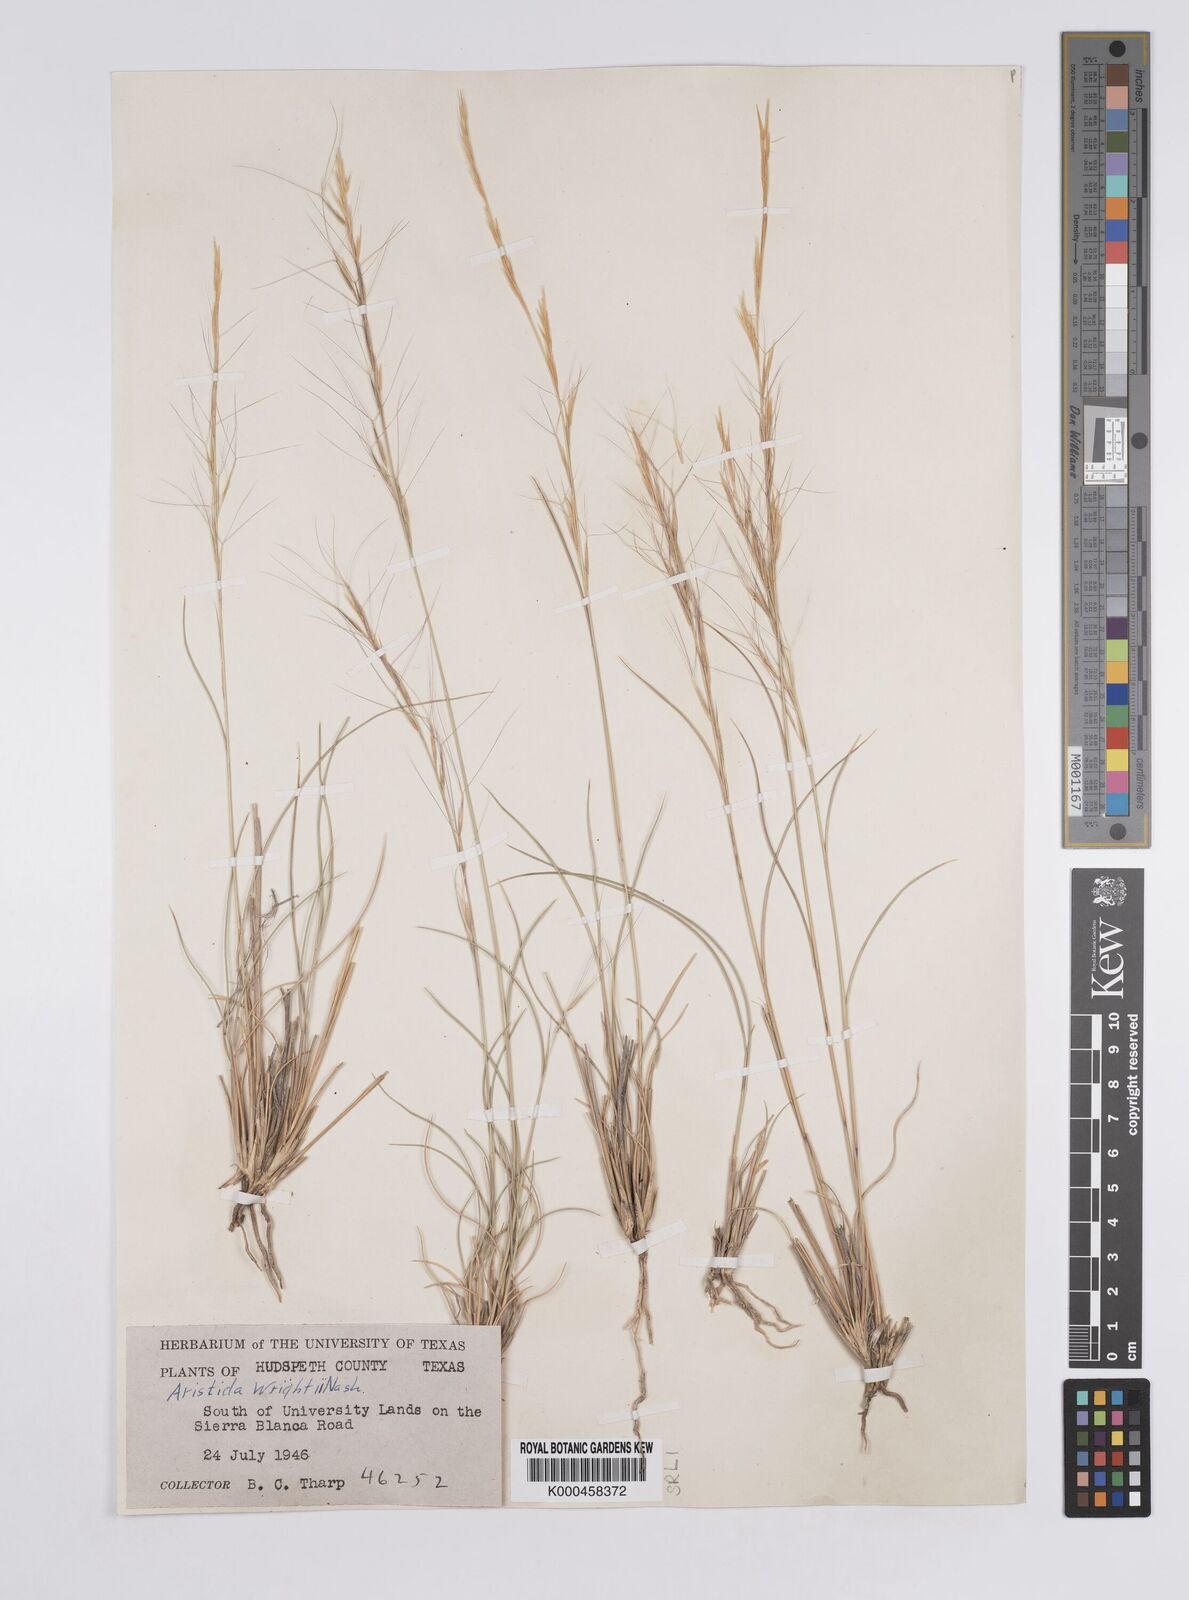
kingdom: Plantae
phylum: Tracheophyta
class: Liliopsida
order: Poales
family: Poaceae
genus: Aristida
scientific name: Aristida wrightii
